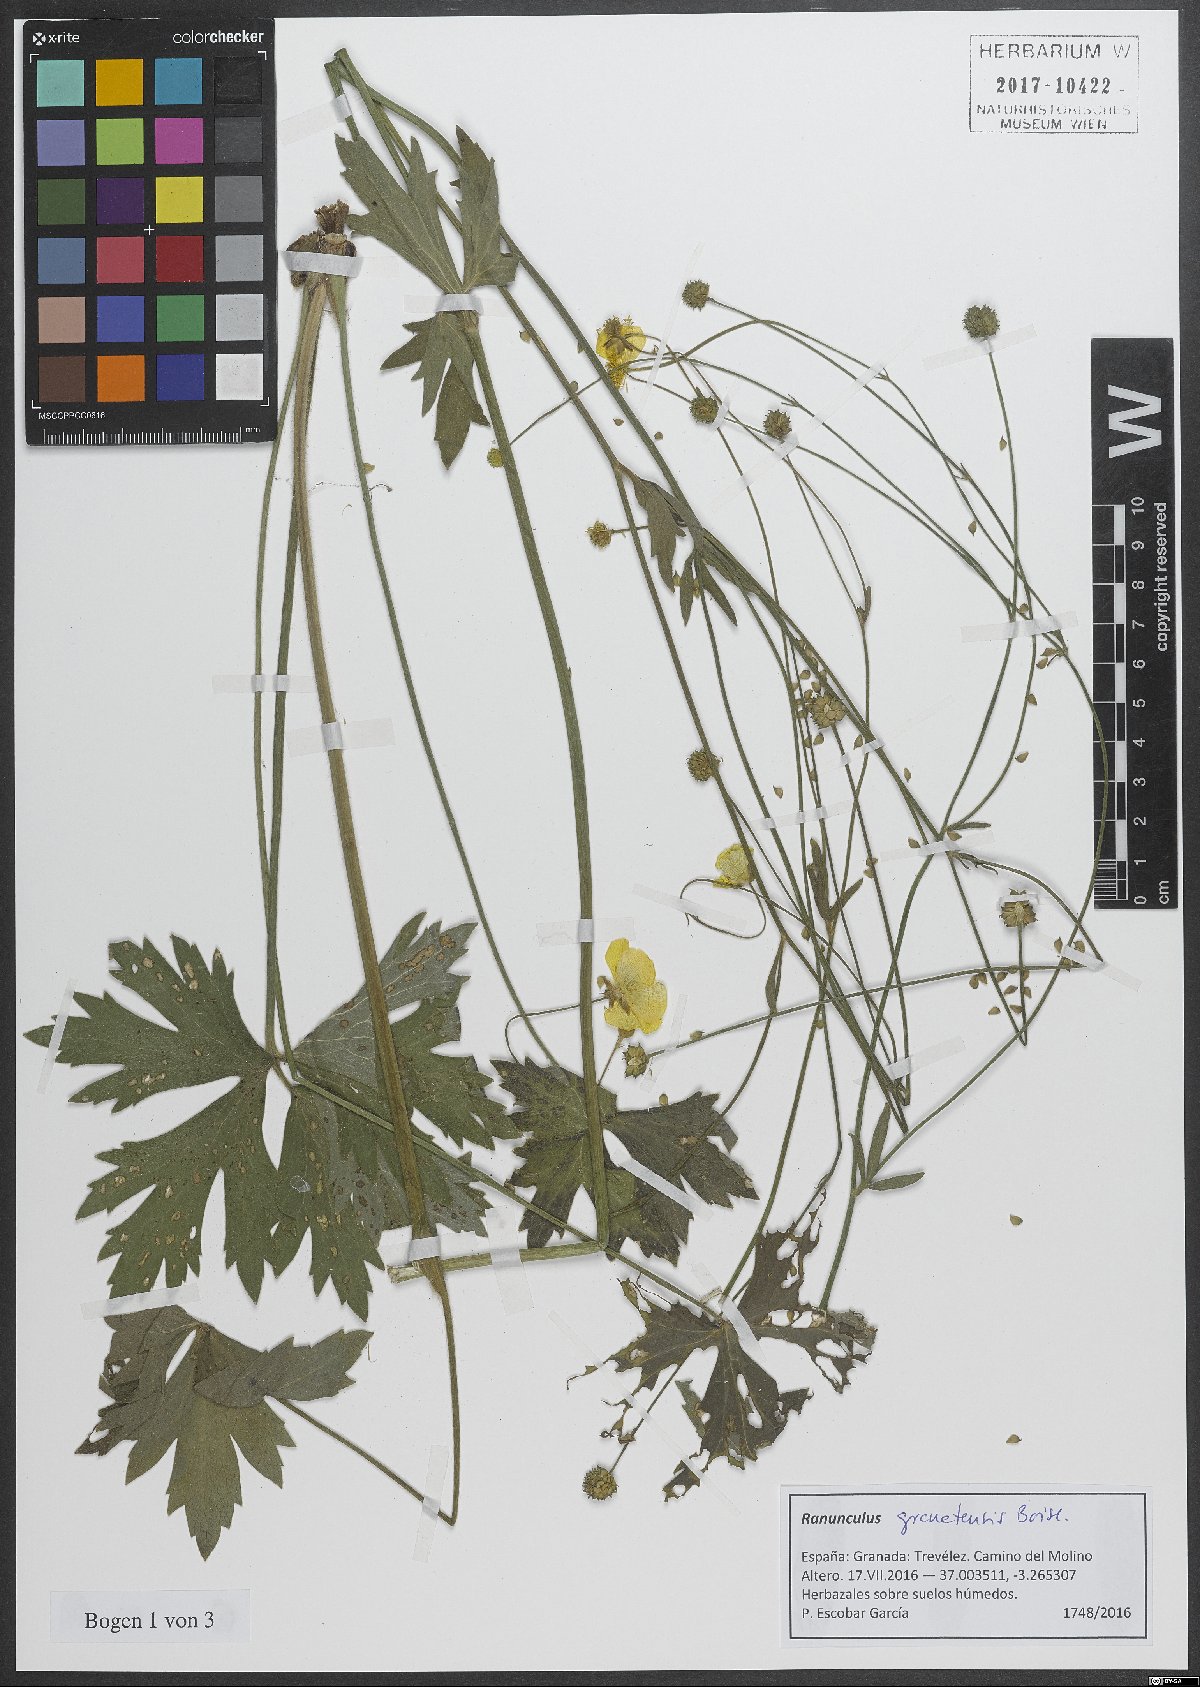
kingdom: Plantae
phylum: Tracheophyta
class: Magnoliopsida
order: Ranunculales
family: Ranunculaceae
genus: Ranunculus
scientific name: Ranunculus granatensis
